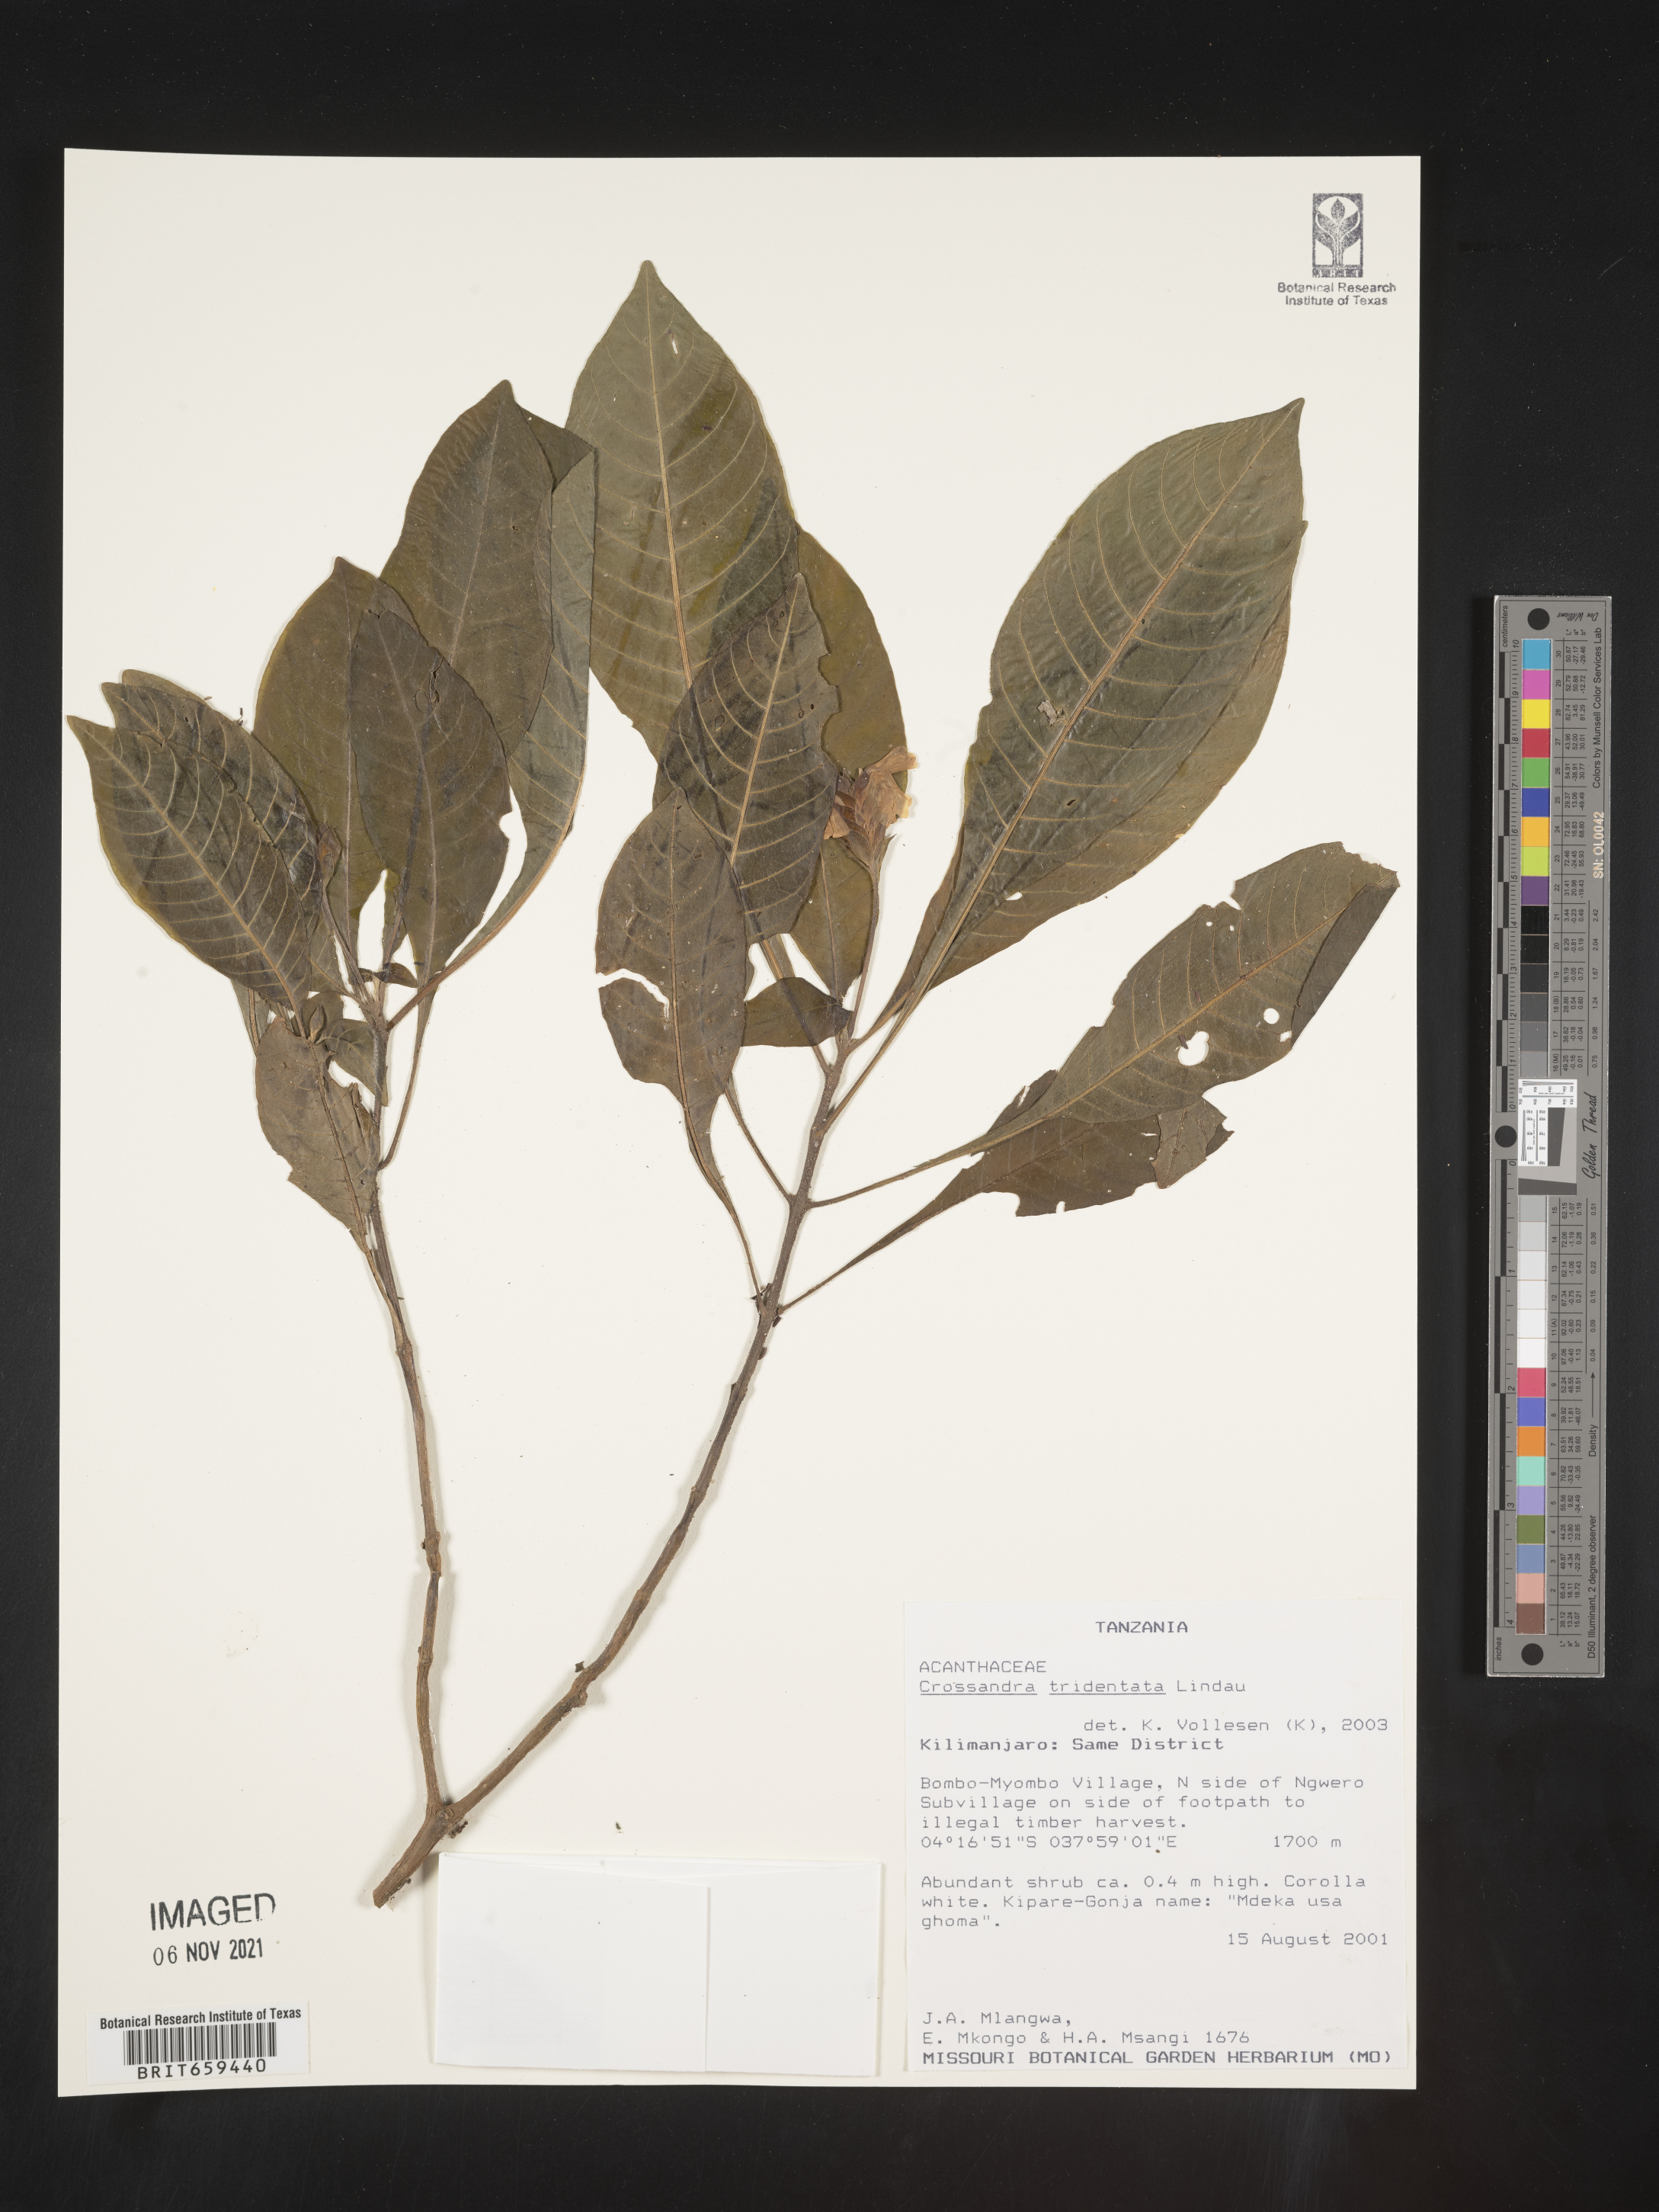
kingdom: Plantae
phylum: Tracheophyta
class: Magnoliopsida
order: Lamiales
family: Acanthaceae
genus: Crossandra
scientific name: Crossandra tridentata
